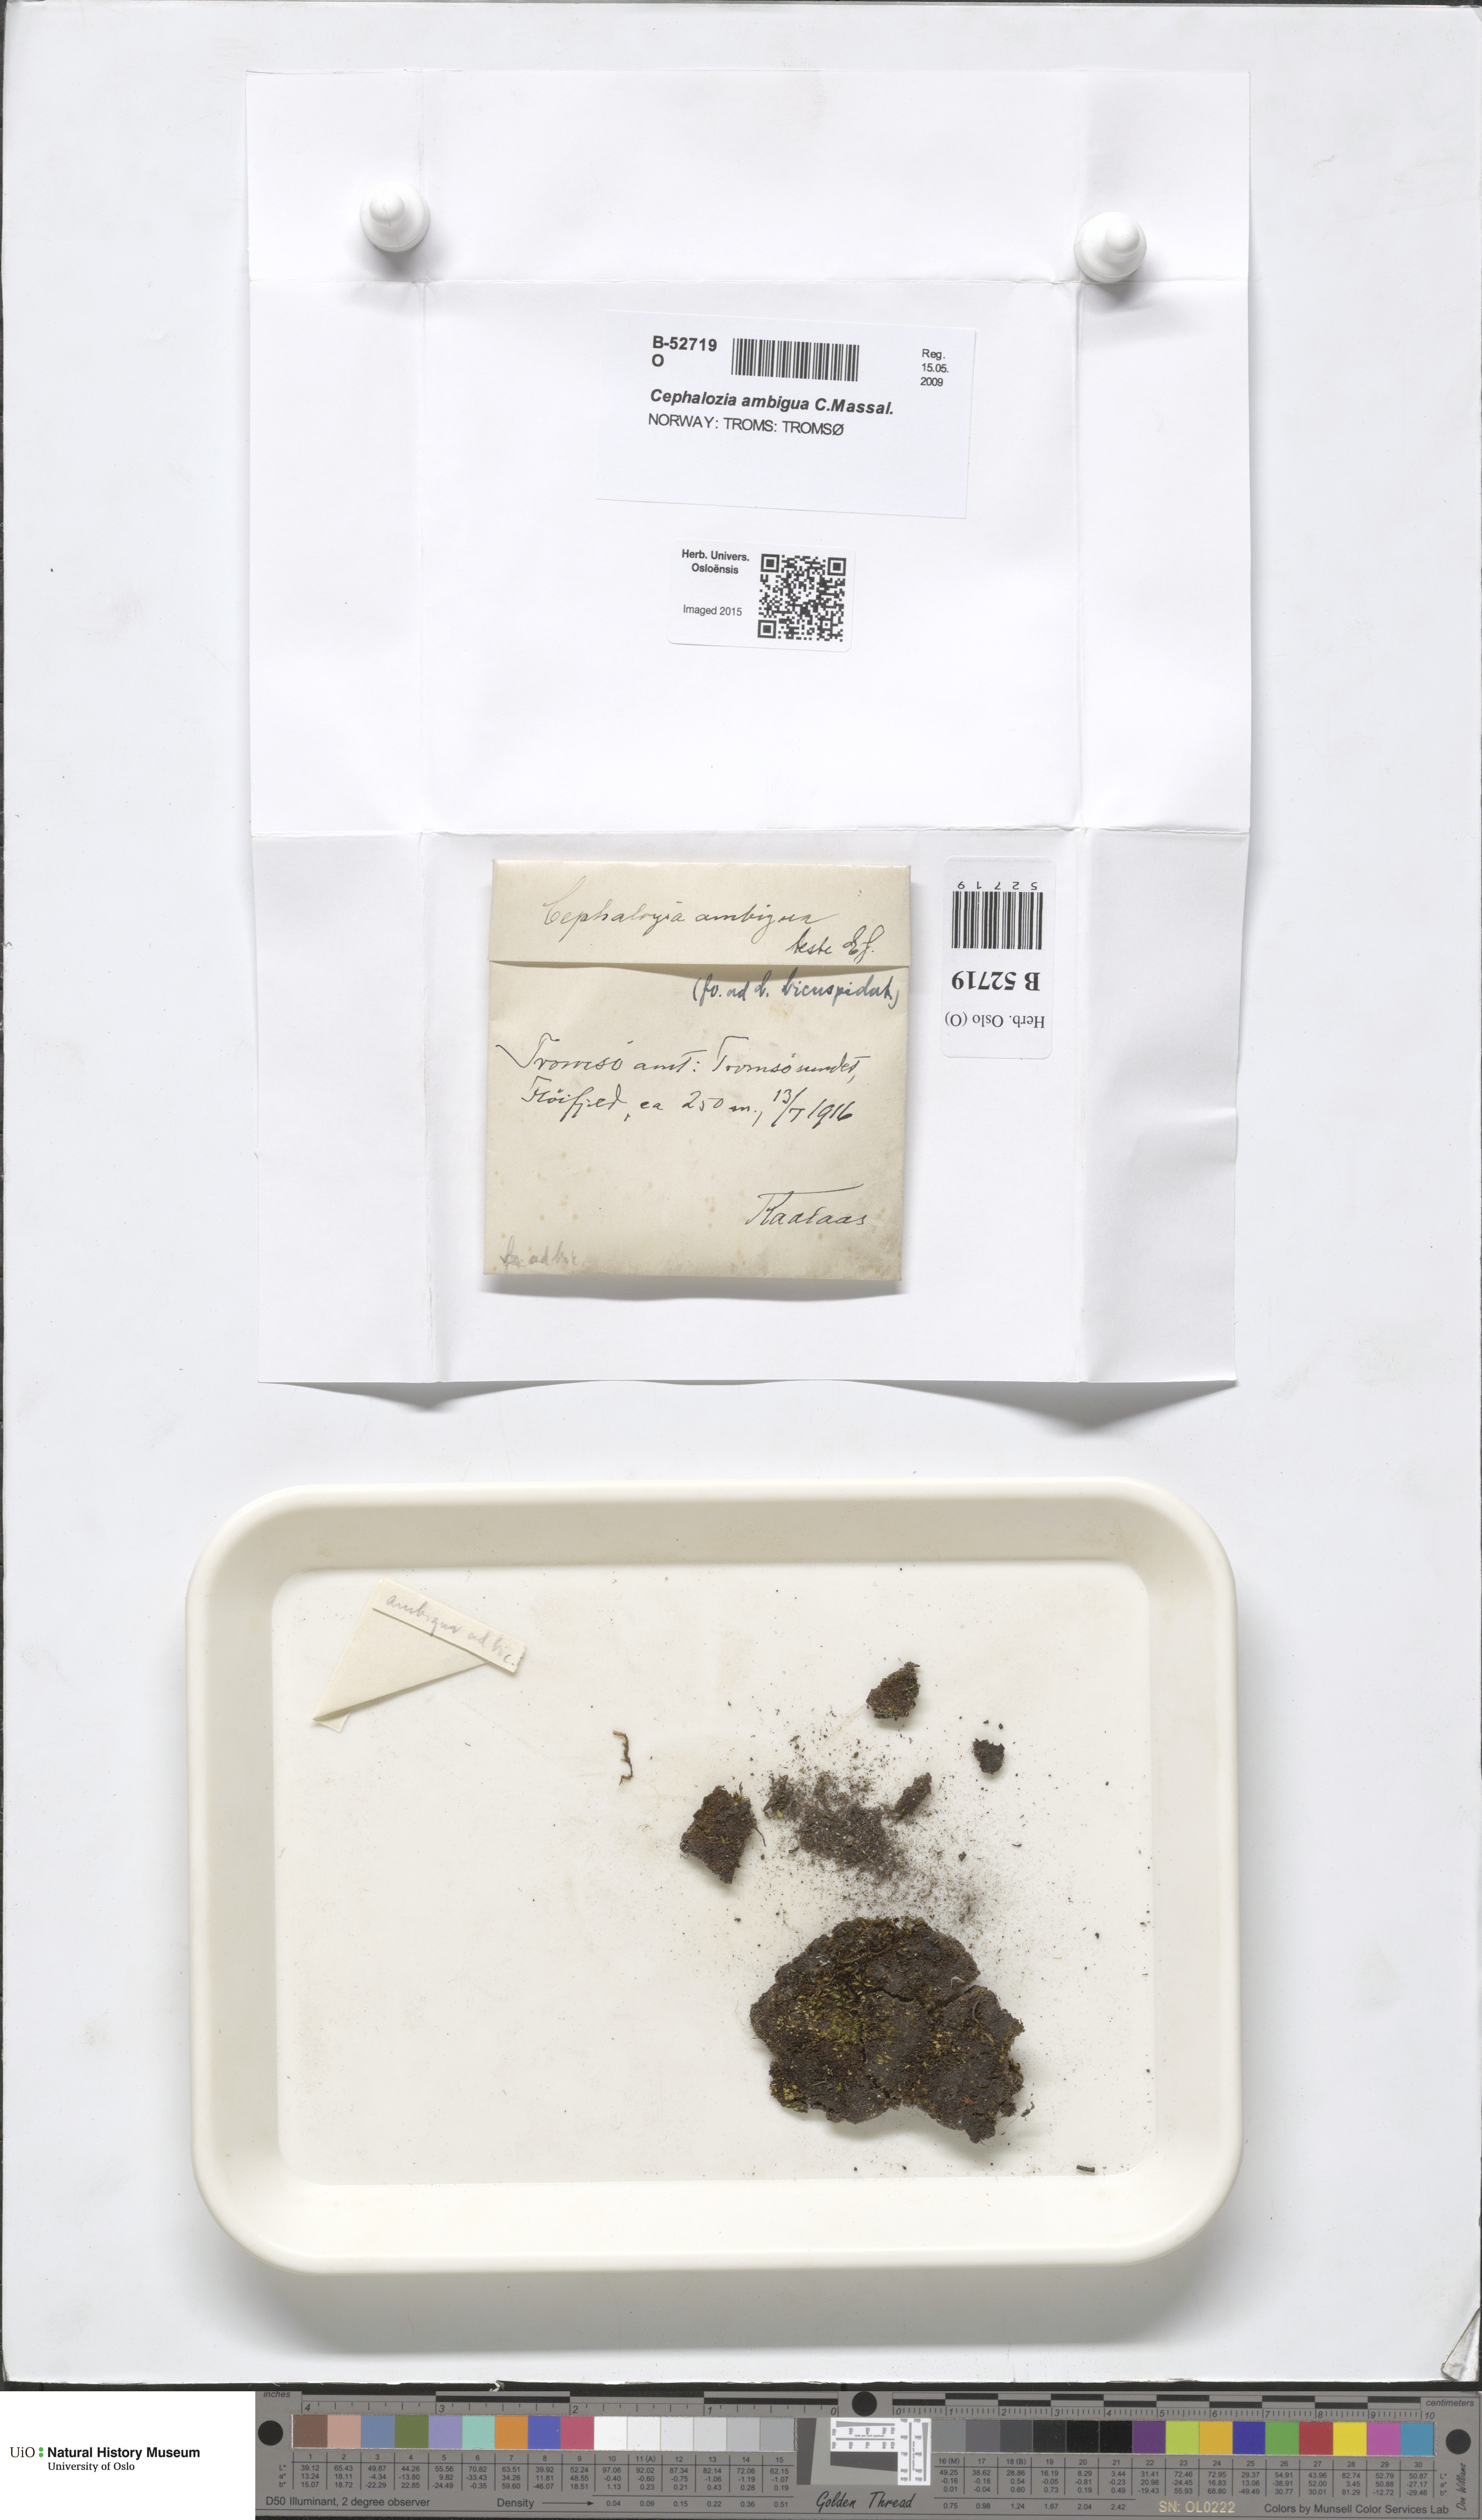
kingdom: Plantae
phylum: Marchantiophyta
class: Jungermanniopsida
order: Jungermanniales
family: Cephaloziaceae
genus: Cephalozia
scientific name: Cephalozia ambigua
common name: Snow pincerwort
